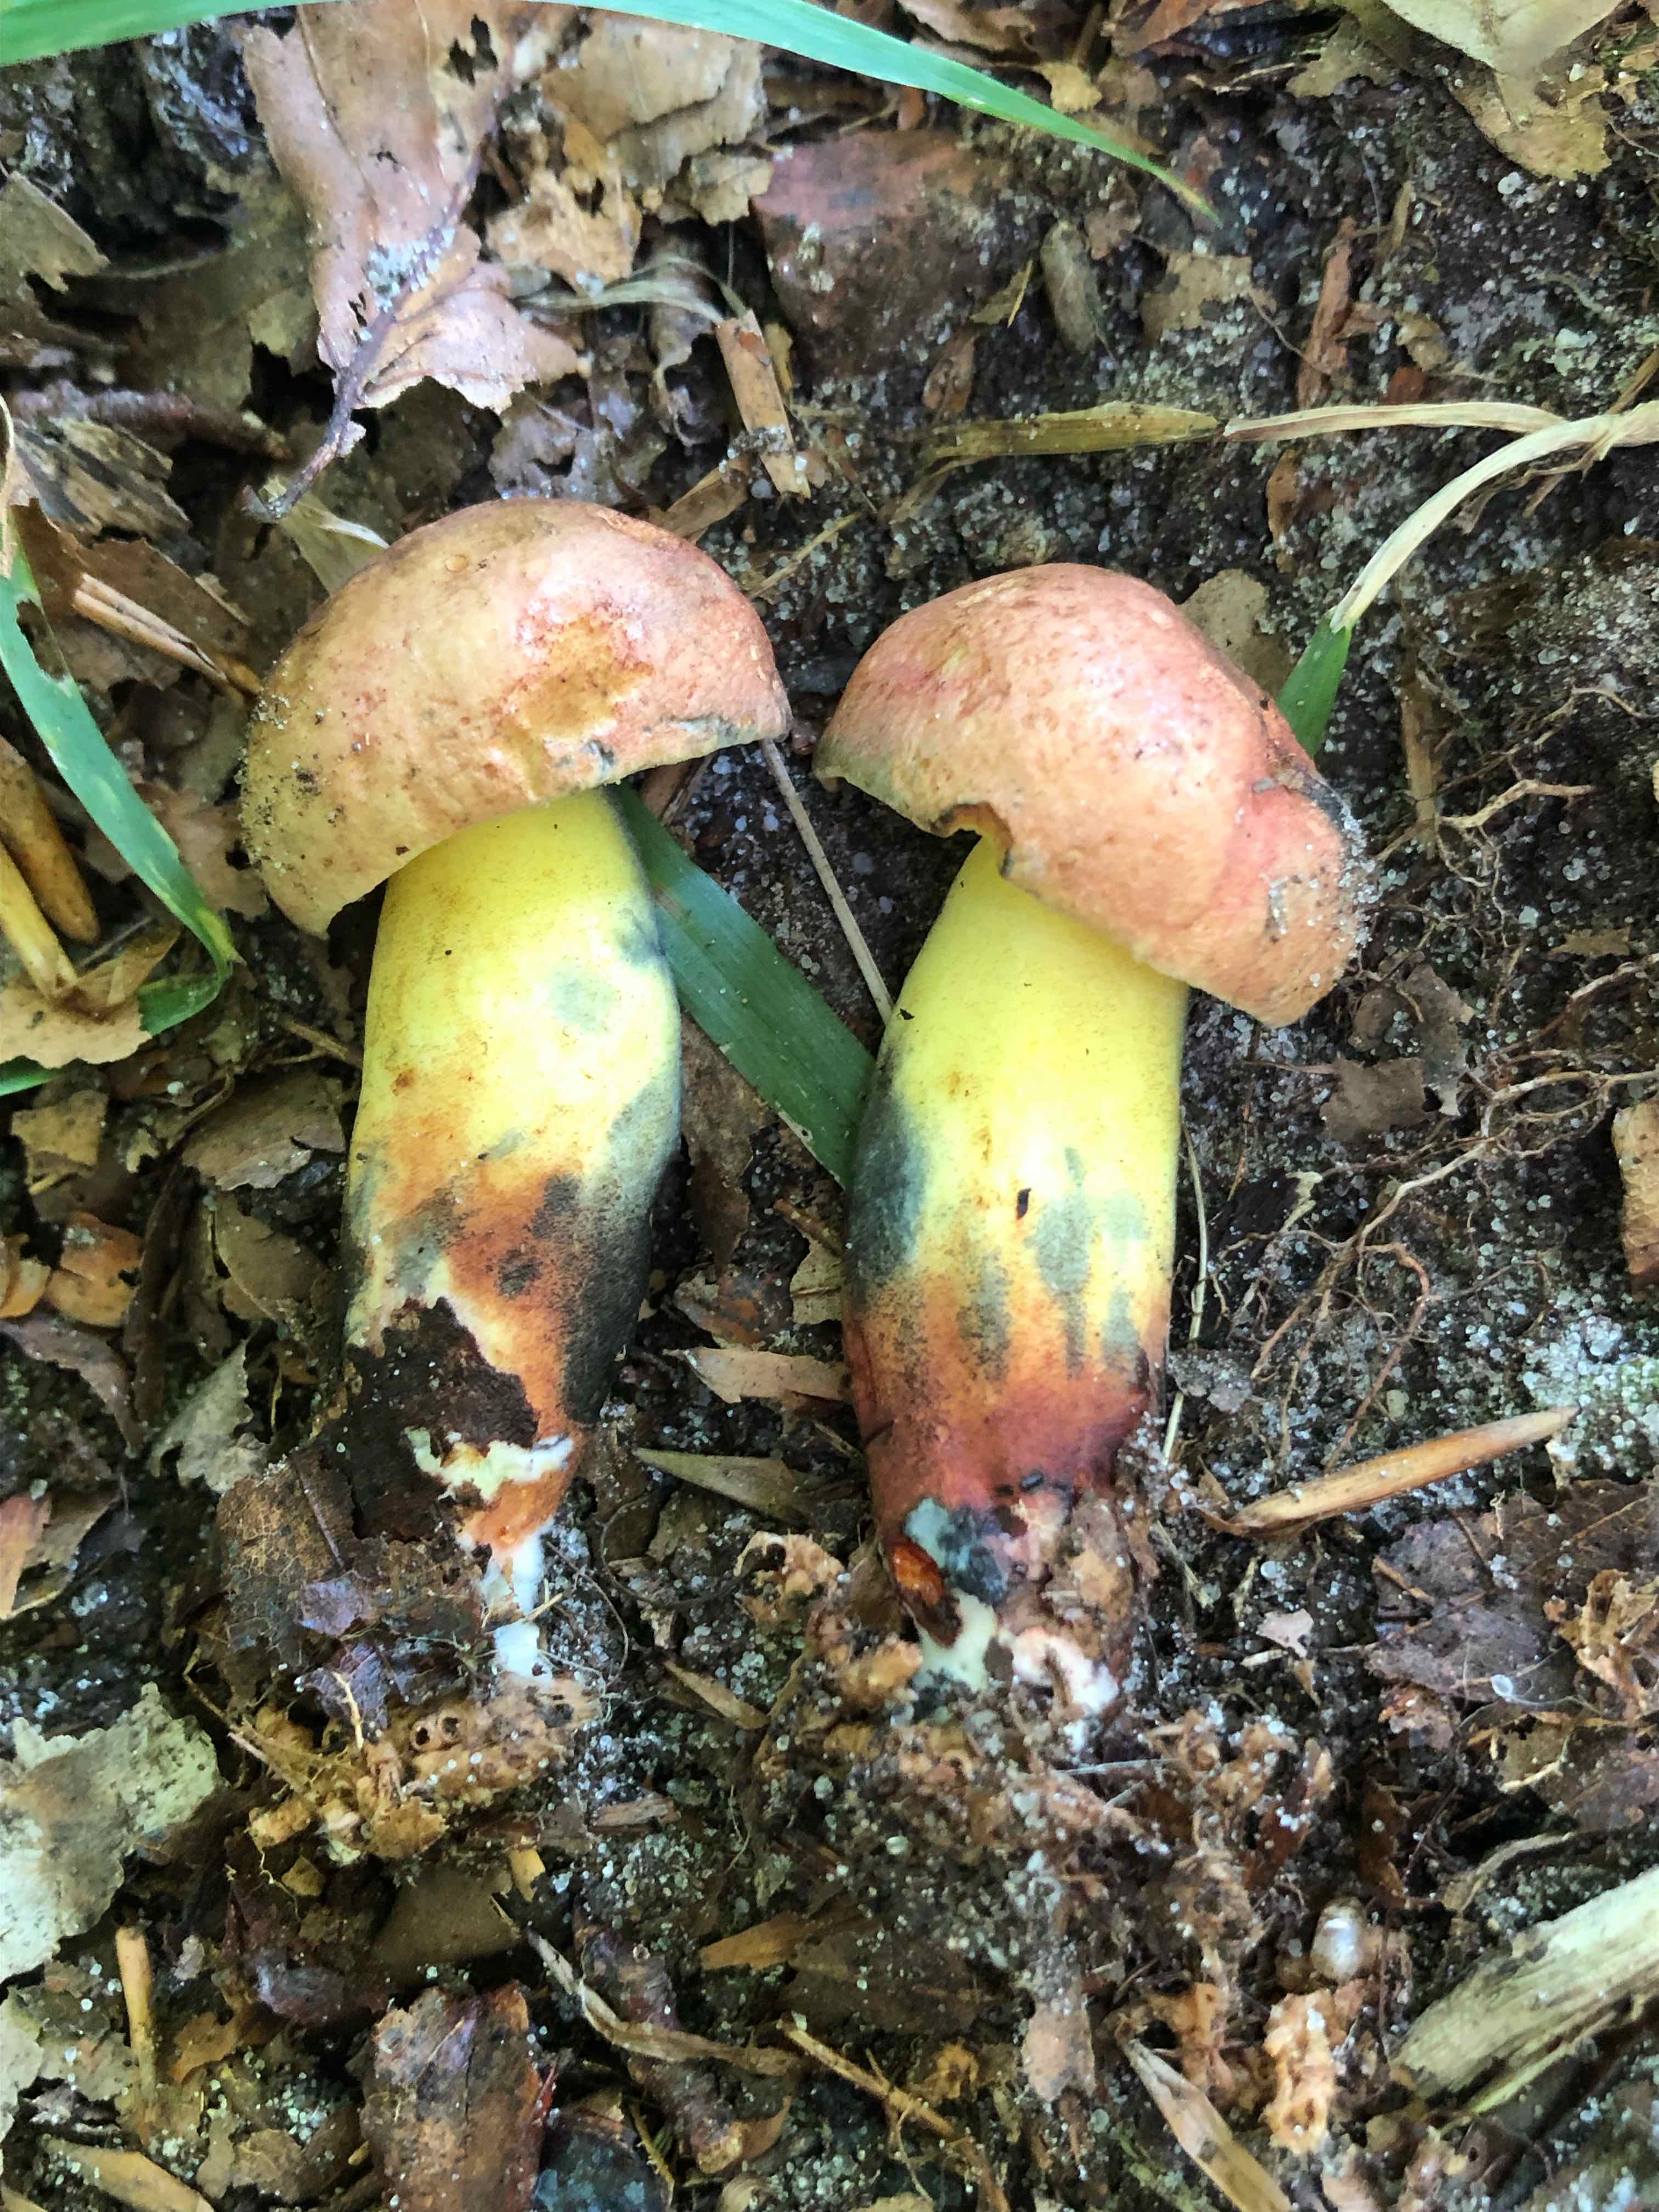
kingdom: Fungi
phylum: Basidiomycota
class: Agaricomycetes
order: Boletales
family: Boletaceae
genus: Cyanoboletus
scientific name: Cyanoboletus pulverulentus
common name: sortblånende rørhat
